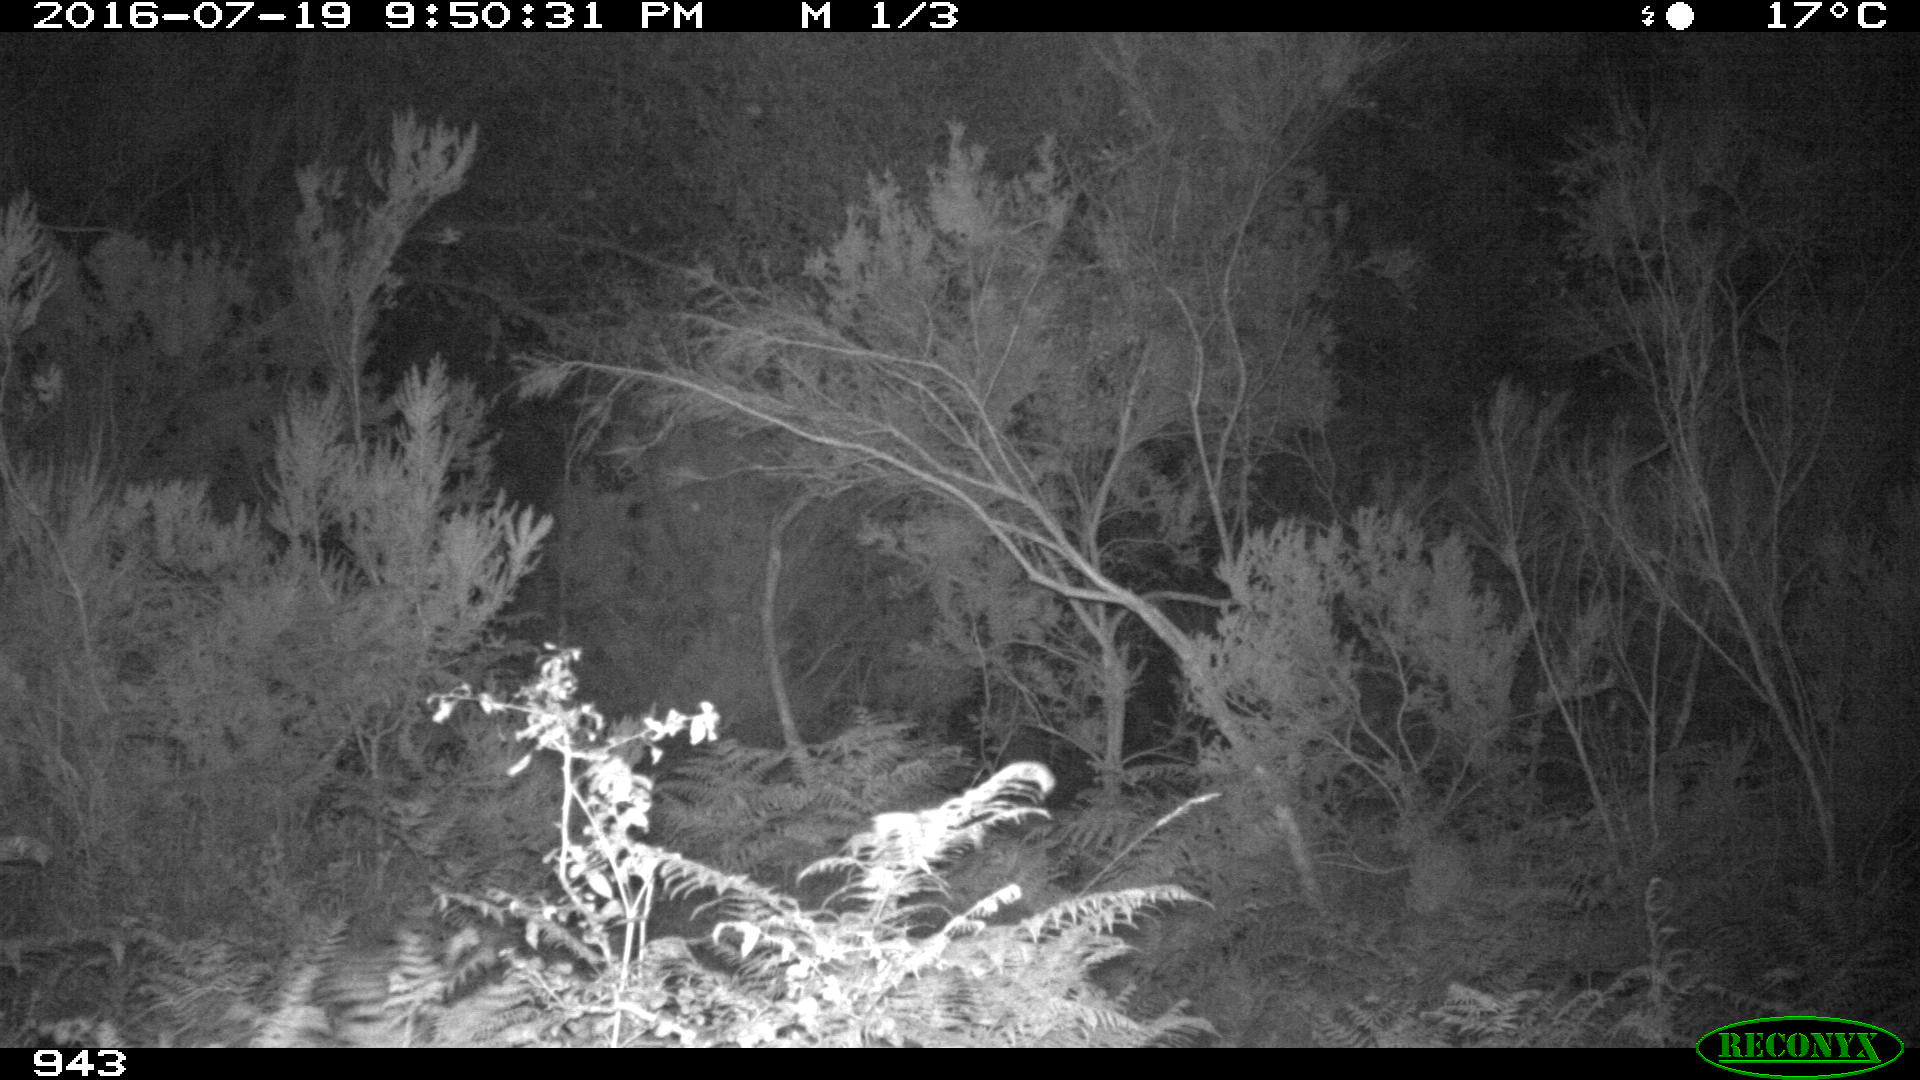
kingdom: Animalia
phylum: Chordata
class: Mammalia
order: Artiodactyla
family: Bovidae
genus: Bos
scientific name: Bos taurus
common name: Domesticated cattle
